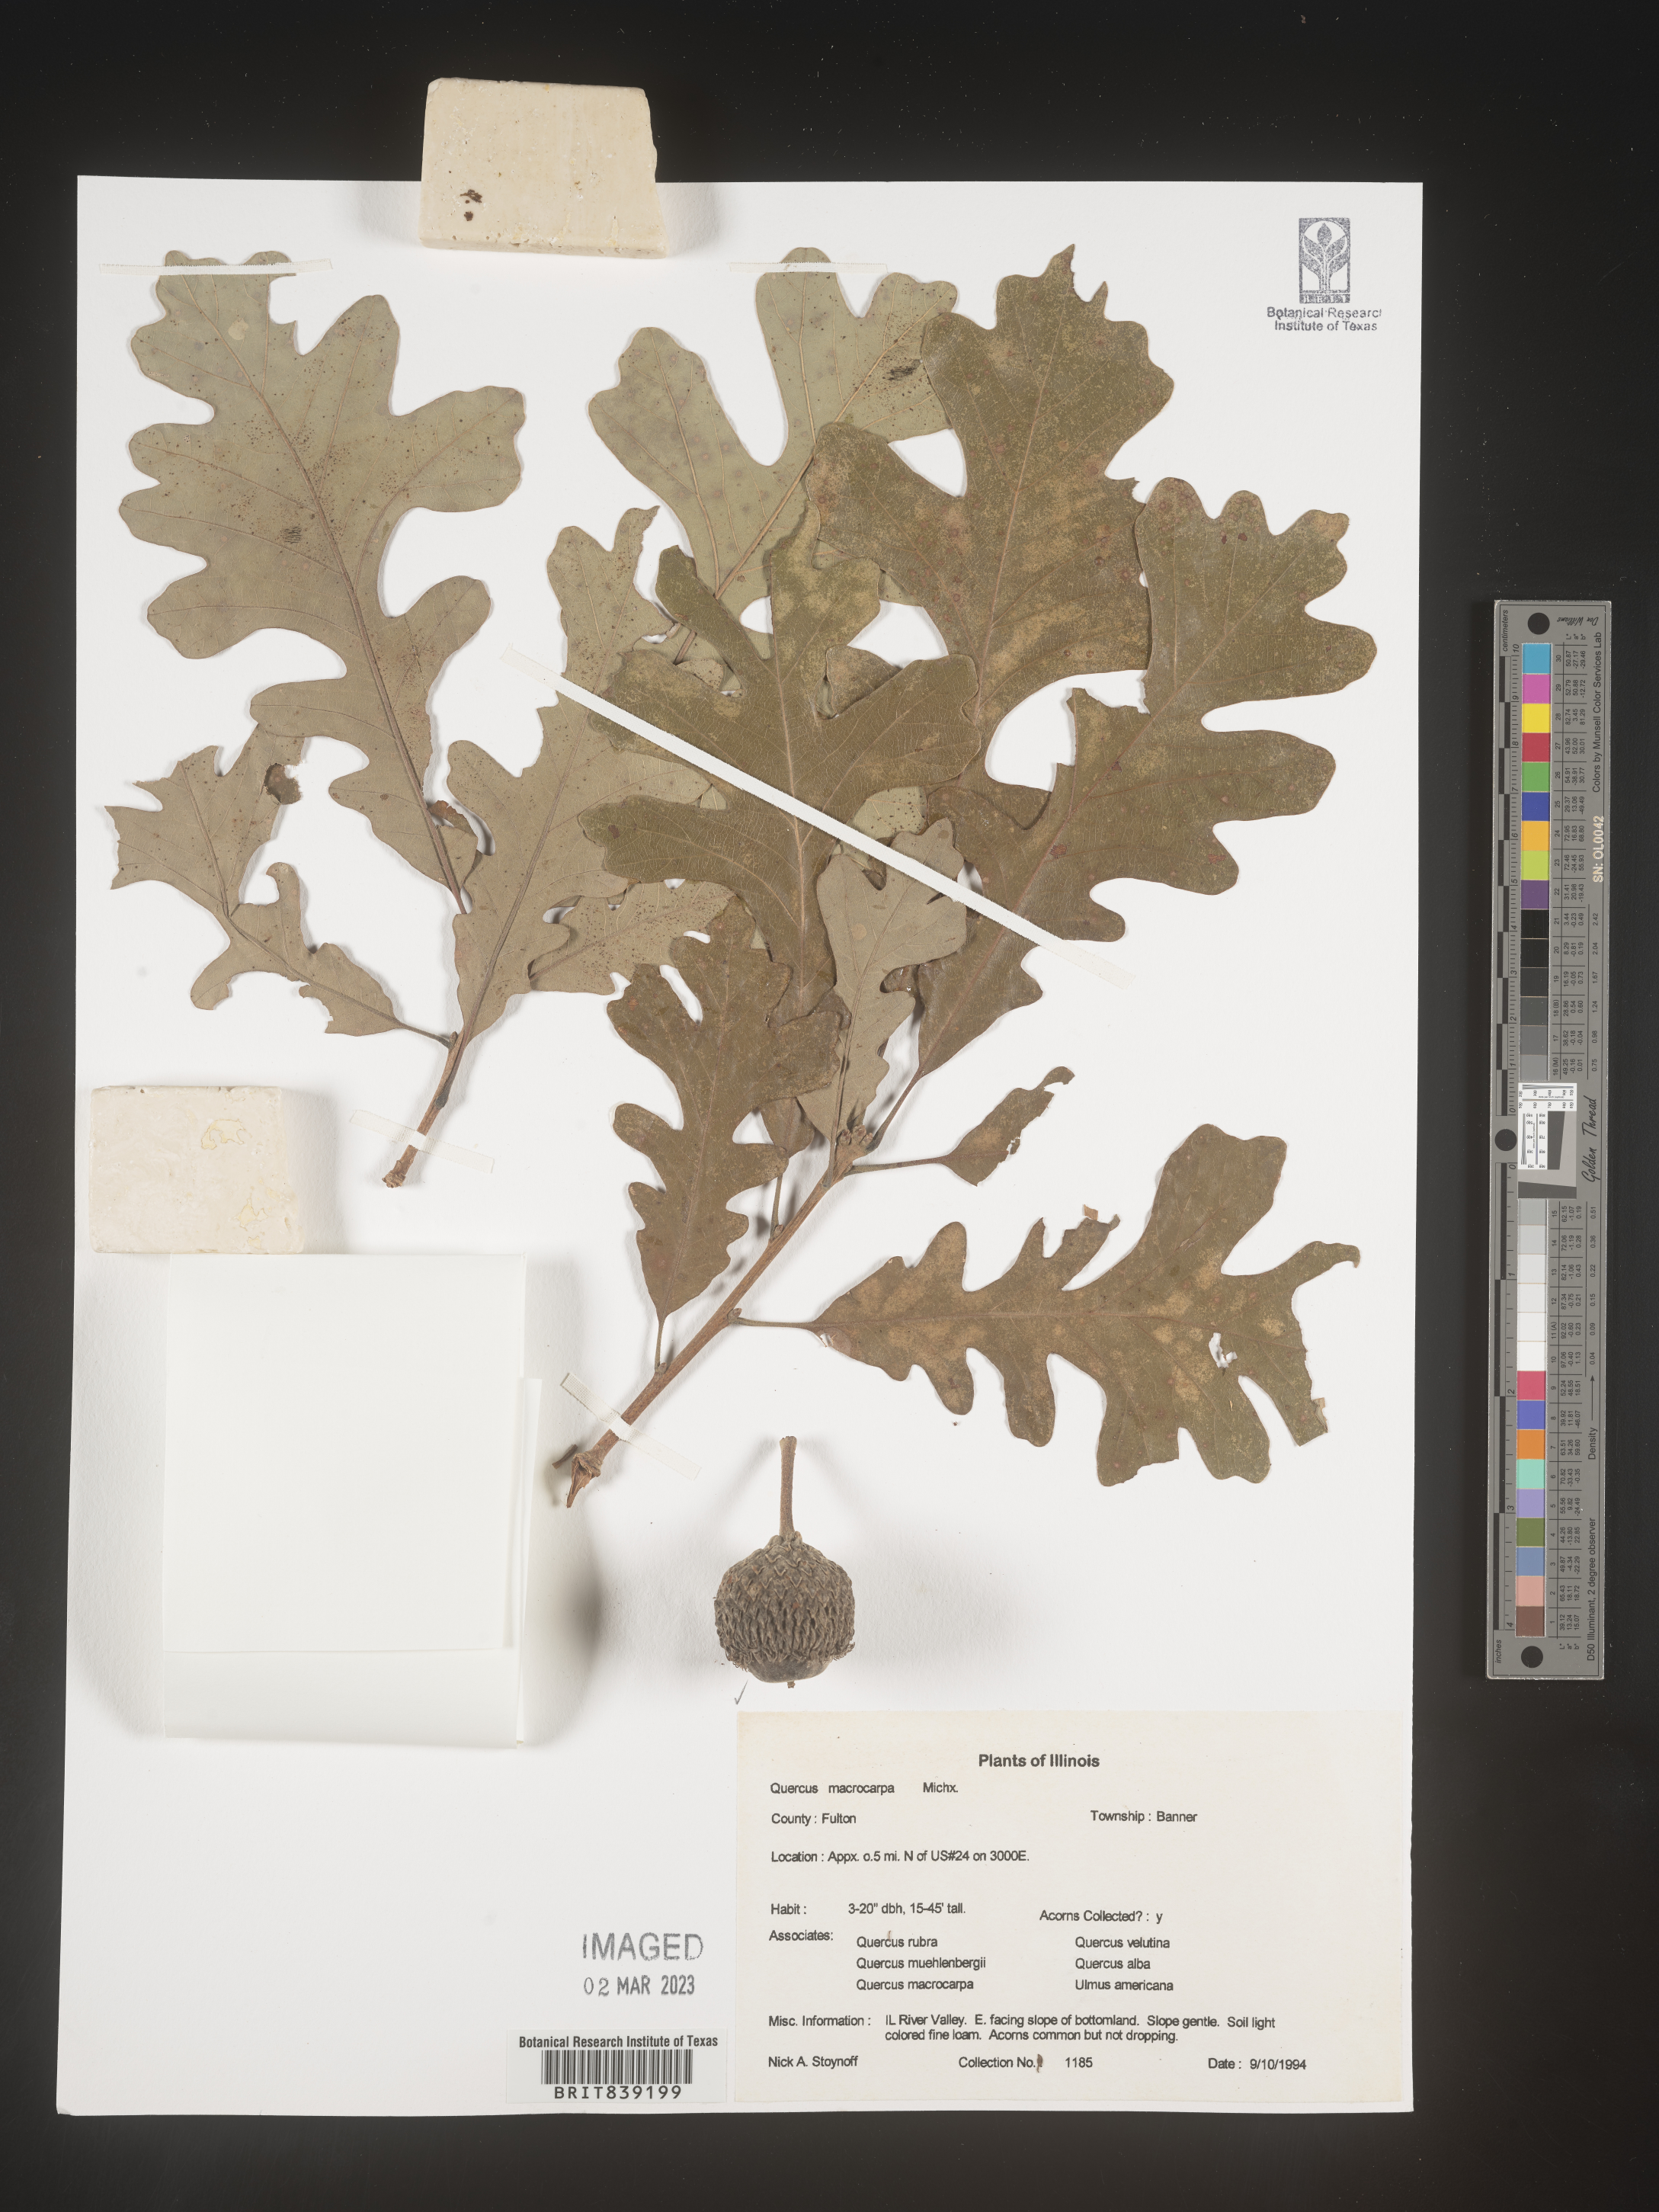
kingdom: Plantae
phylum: Tracheophyta
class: Magnoliopsida
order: Fagales
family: Fagaceae
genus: Quercus
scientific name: Quercus macrocarpa
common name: Bur oak
